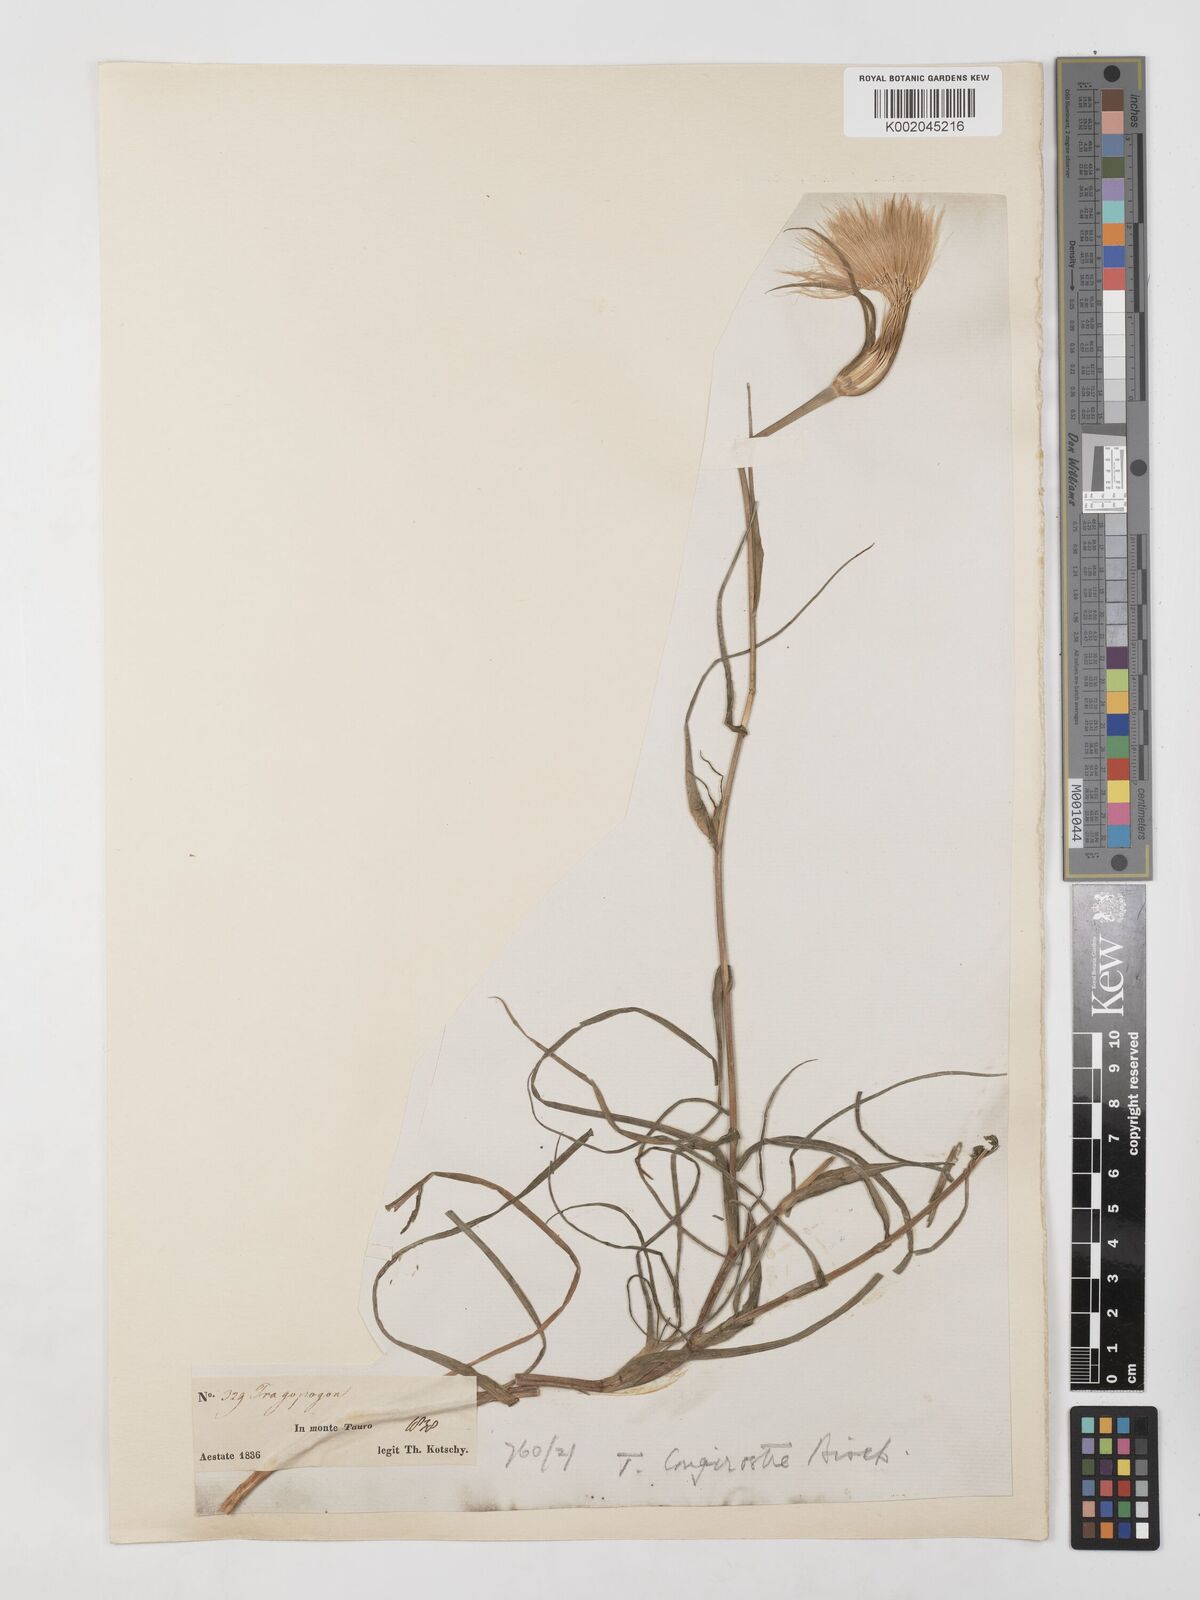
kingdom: Plantae
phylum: Tracheophyta
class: Magnoliopsida
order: Asterales
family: Asteraceae
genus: Tragopogon
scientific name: Tragopogon coelesyriacus
